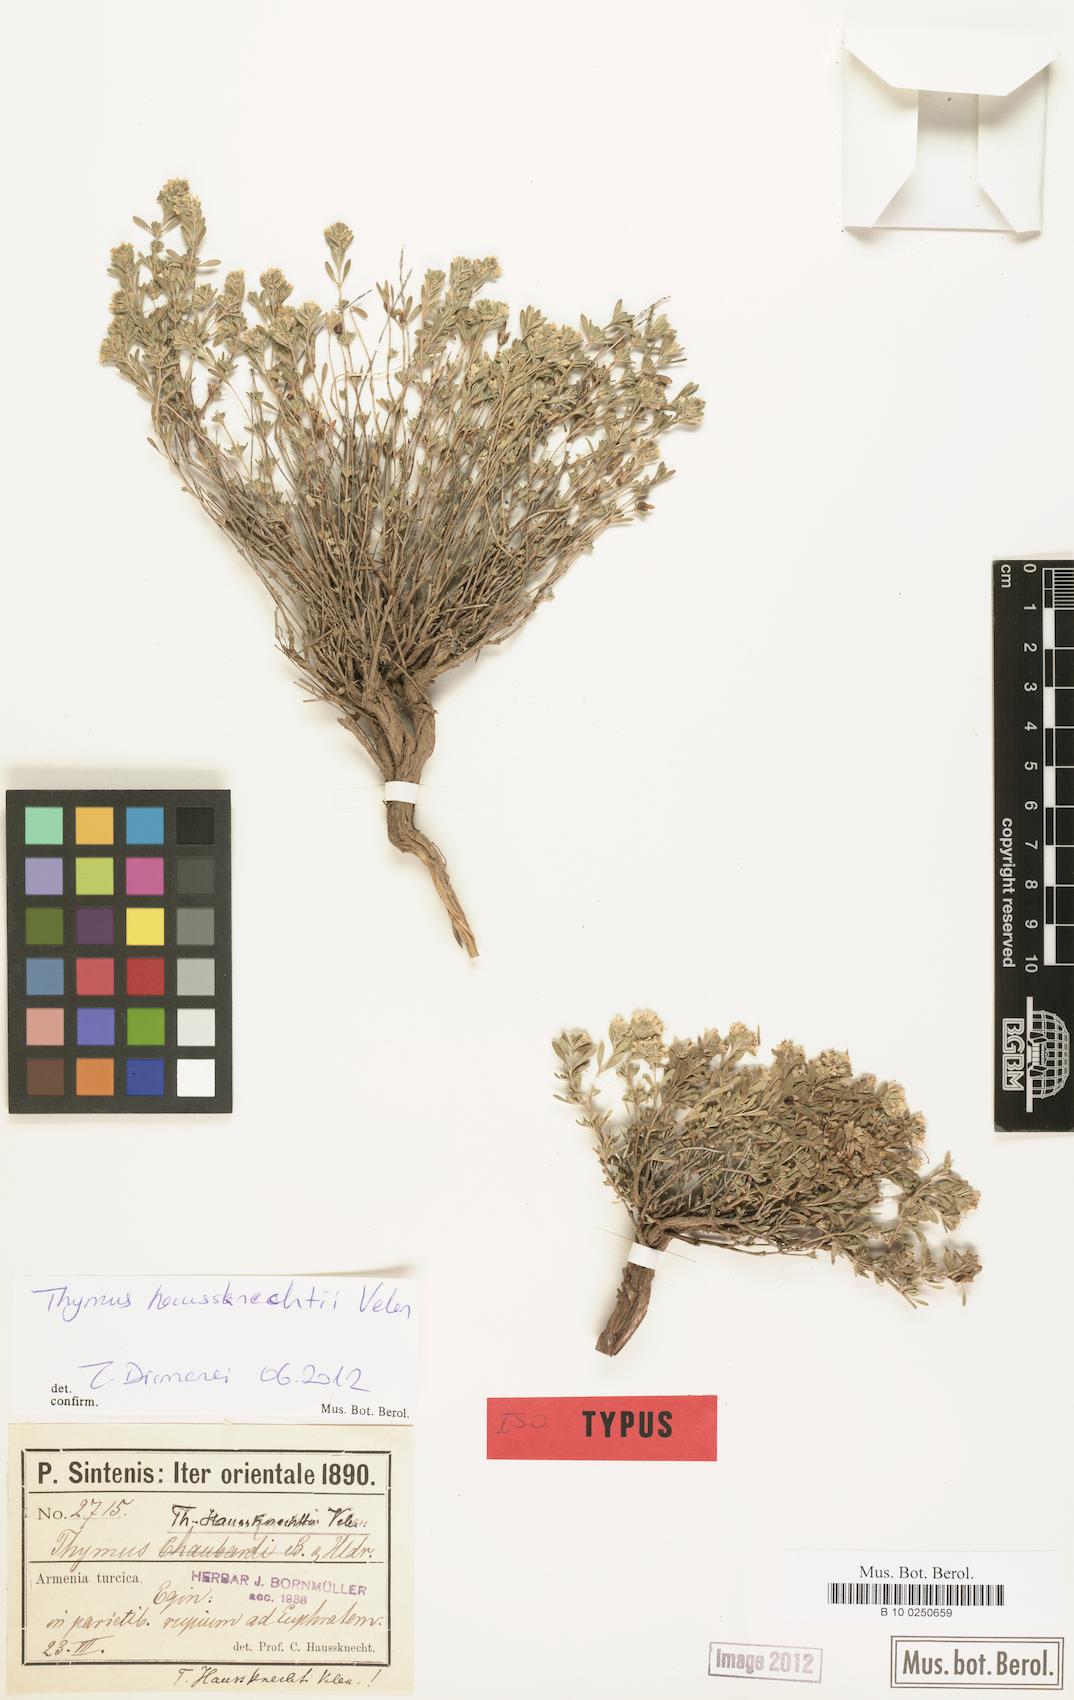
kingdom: Plantae
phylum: Tracheophyta
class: Magnoliopsida
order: Lamiales
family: Lamiaceae
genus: Thymus
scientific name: Thymus haussknechtii
